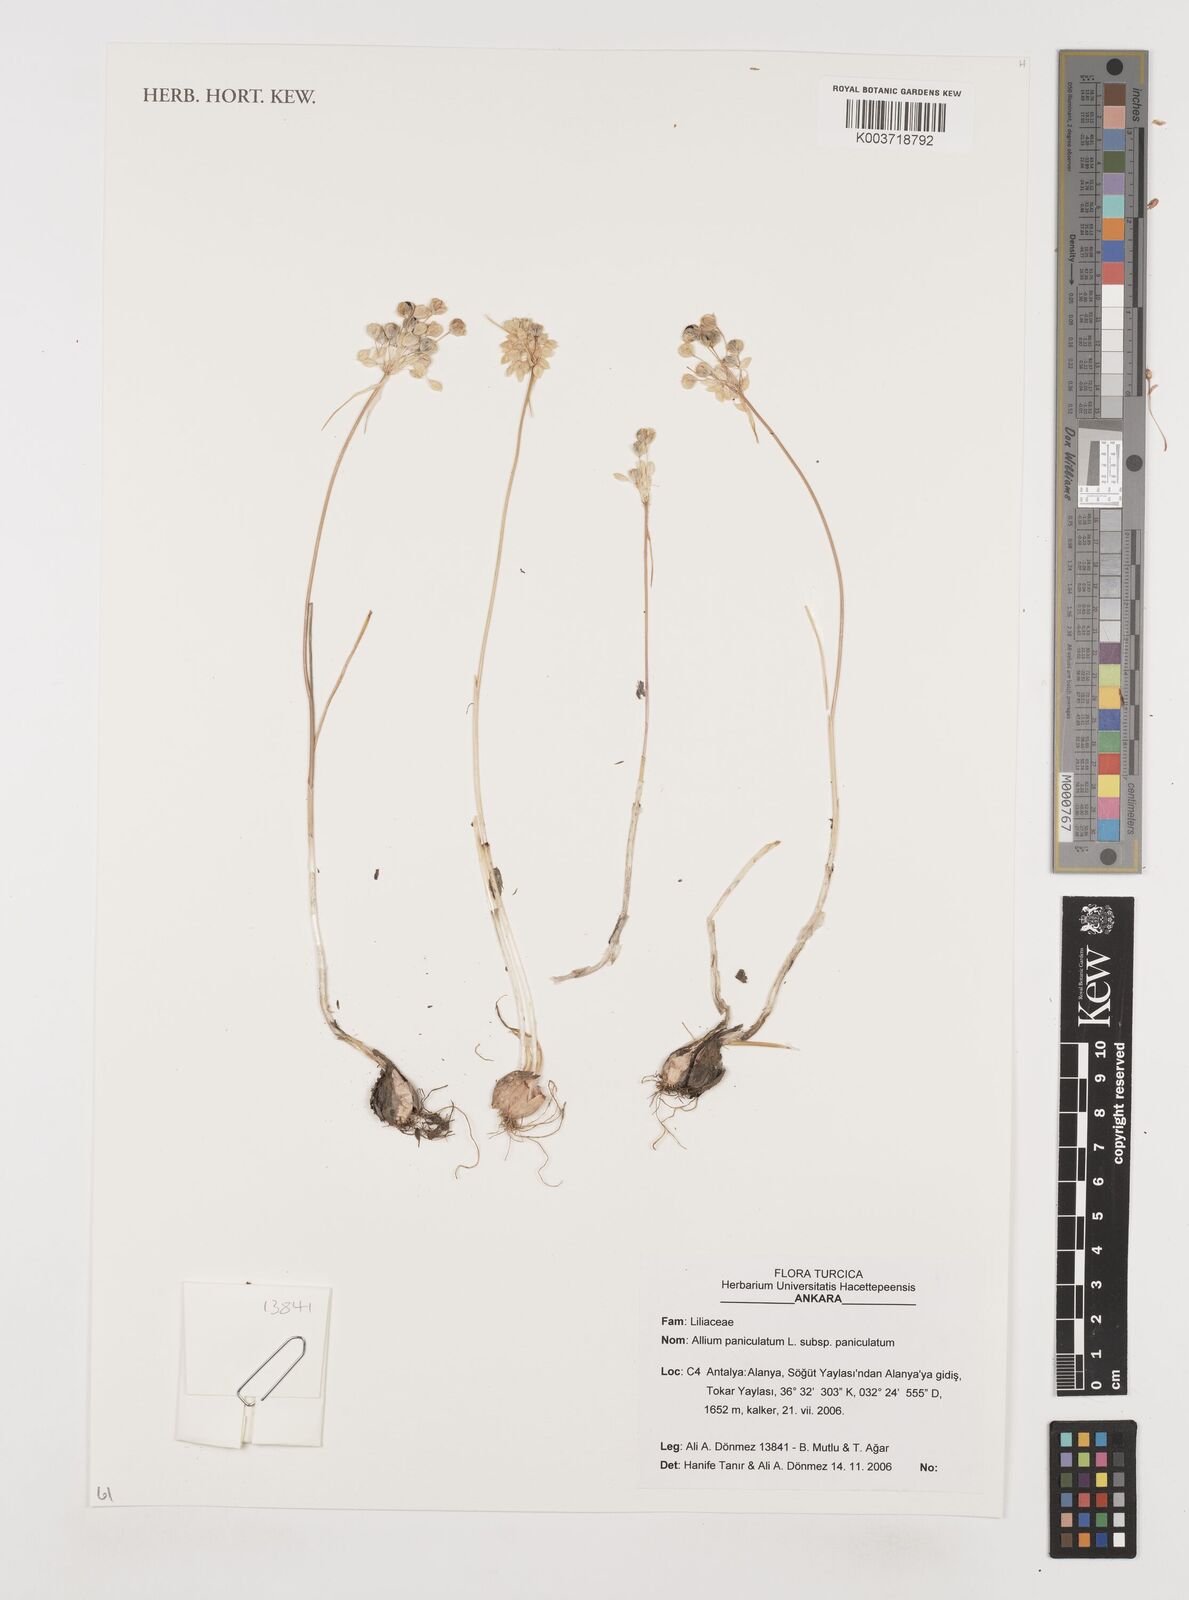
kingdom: Plantae
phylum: Tracheophyta
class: Liliopsida
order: Asparagales
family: Amaryllidaceae
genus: Allium
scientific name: Allium paniculatum
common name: Pale garlic
